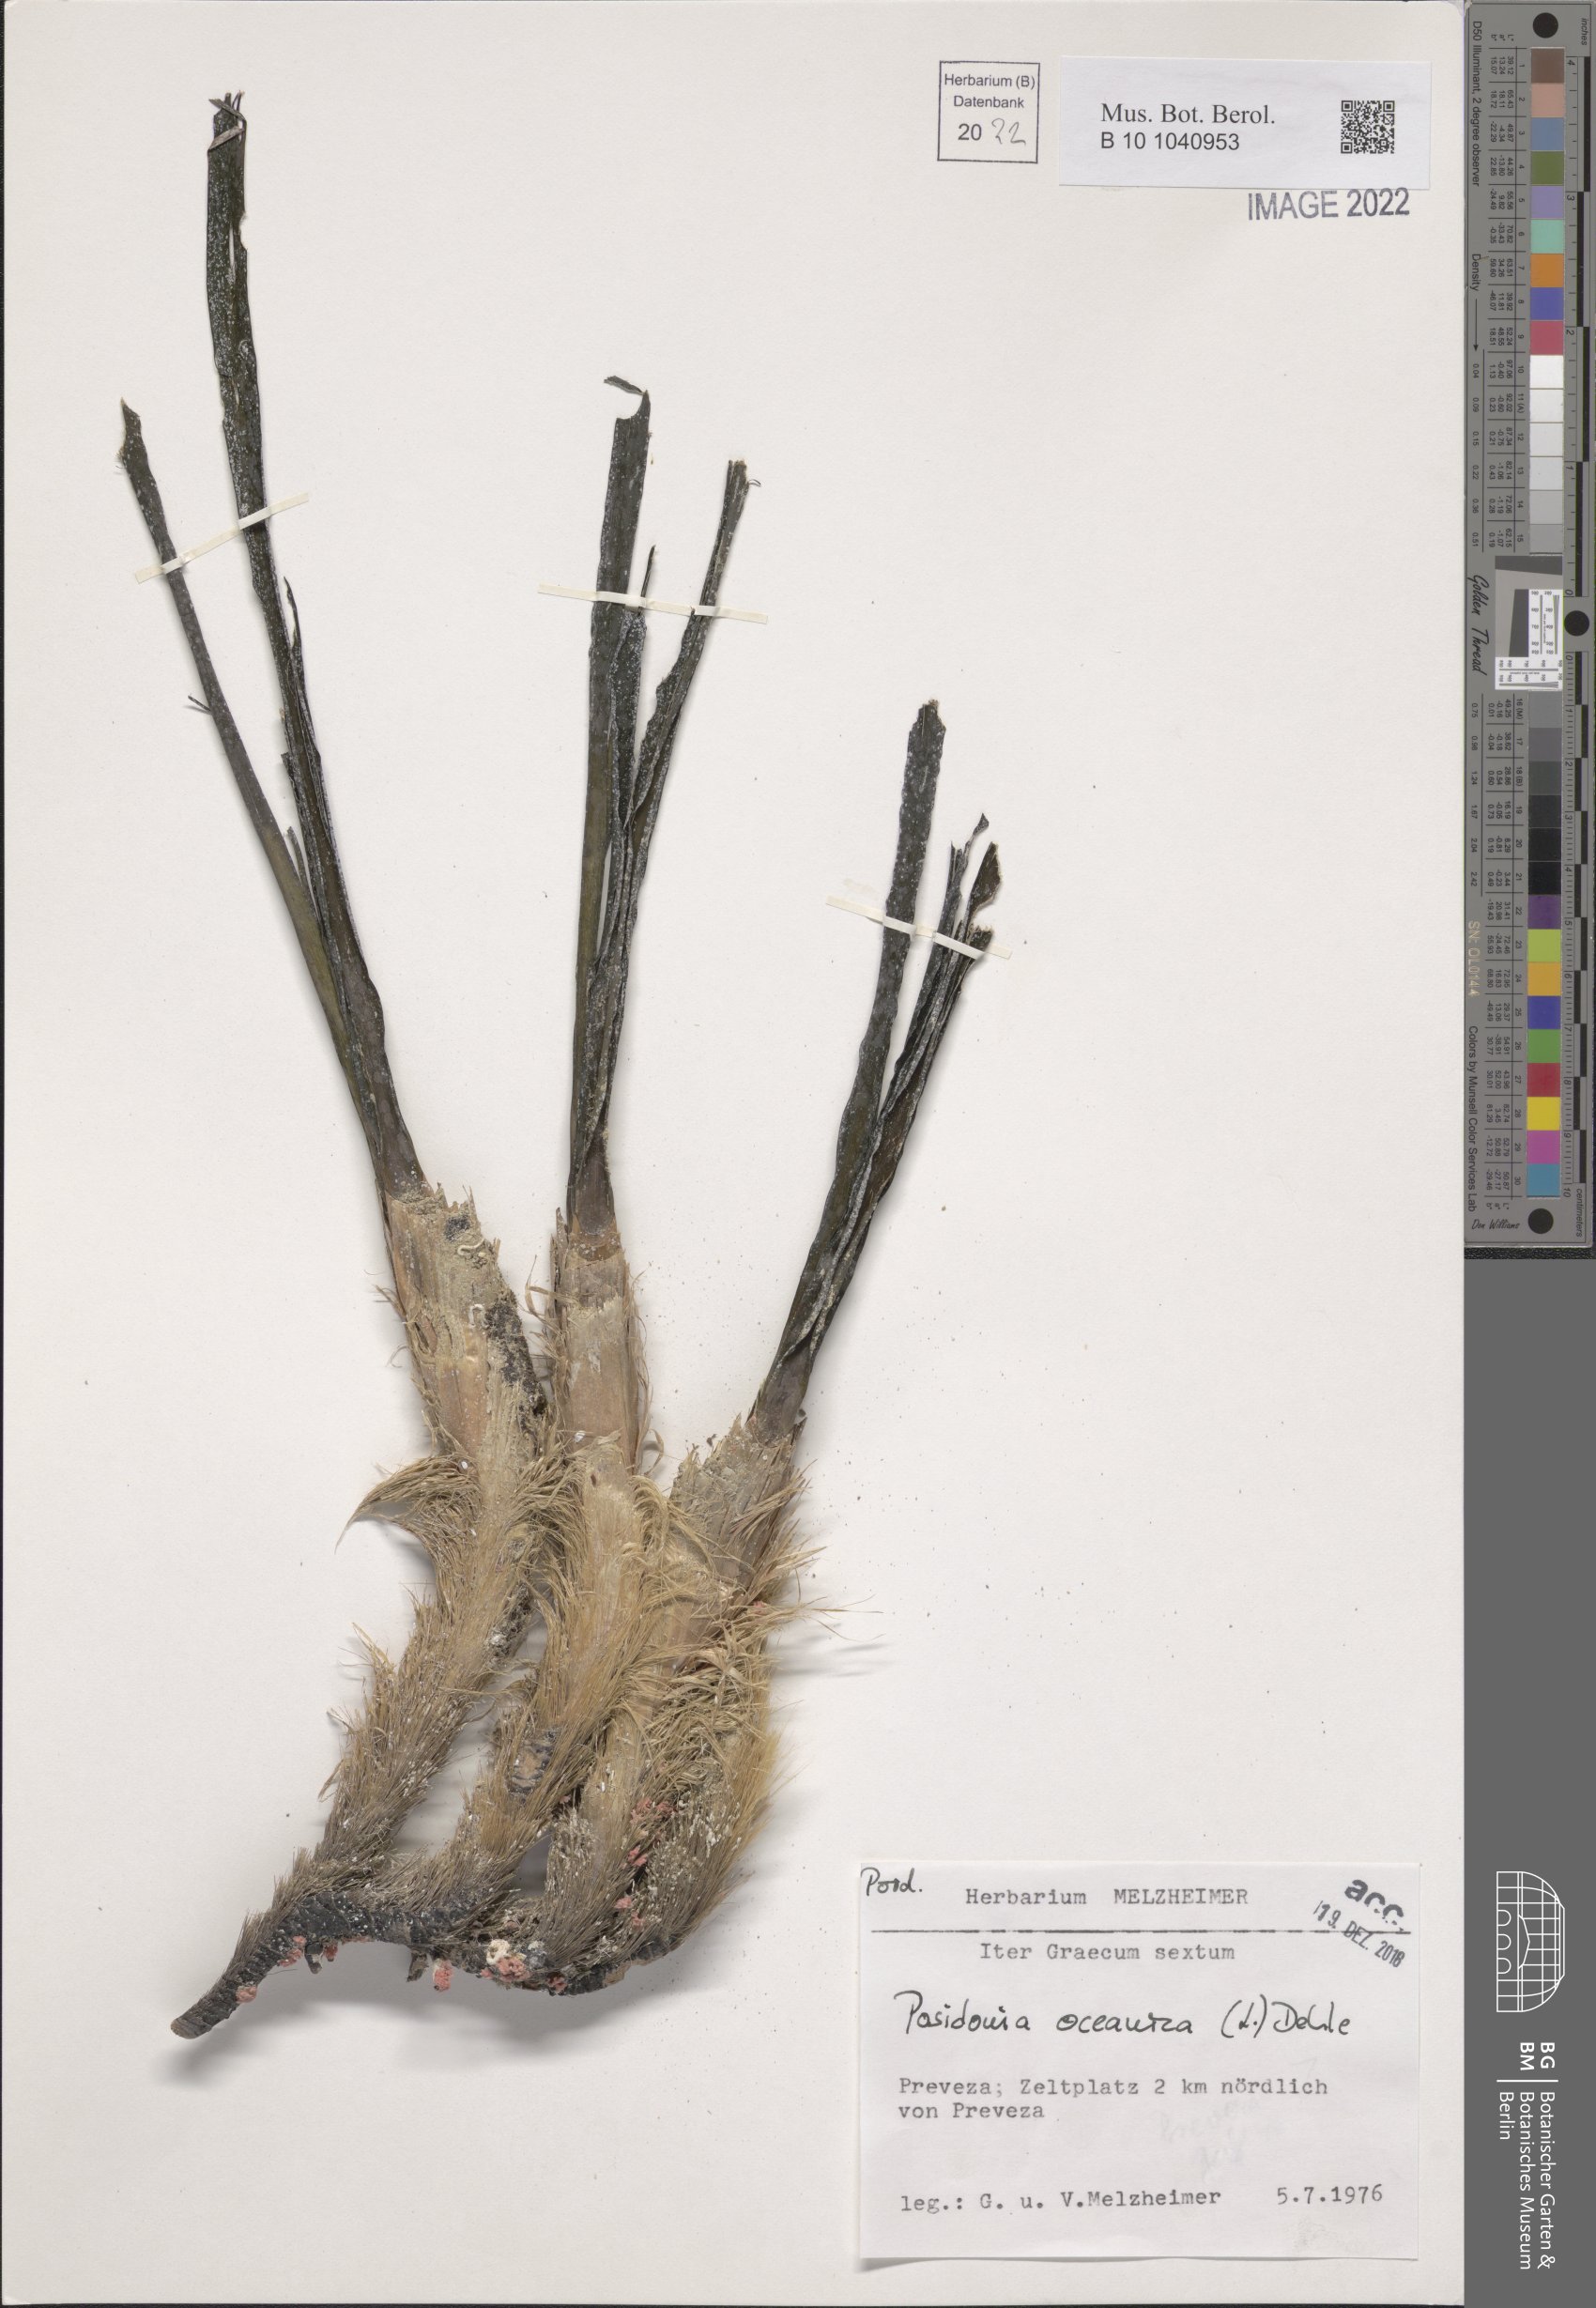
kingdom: Plantae
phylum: Tracheophyta
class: Liliopsida
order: Alismatales
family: Posidoniaceae
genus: Posidonia
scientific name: Posidonia oceanica
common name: Mediterranean tapeweed
